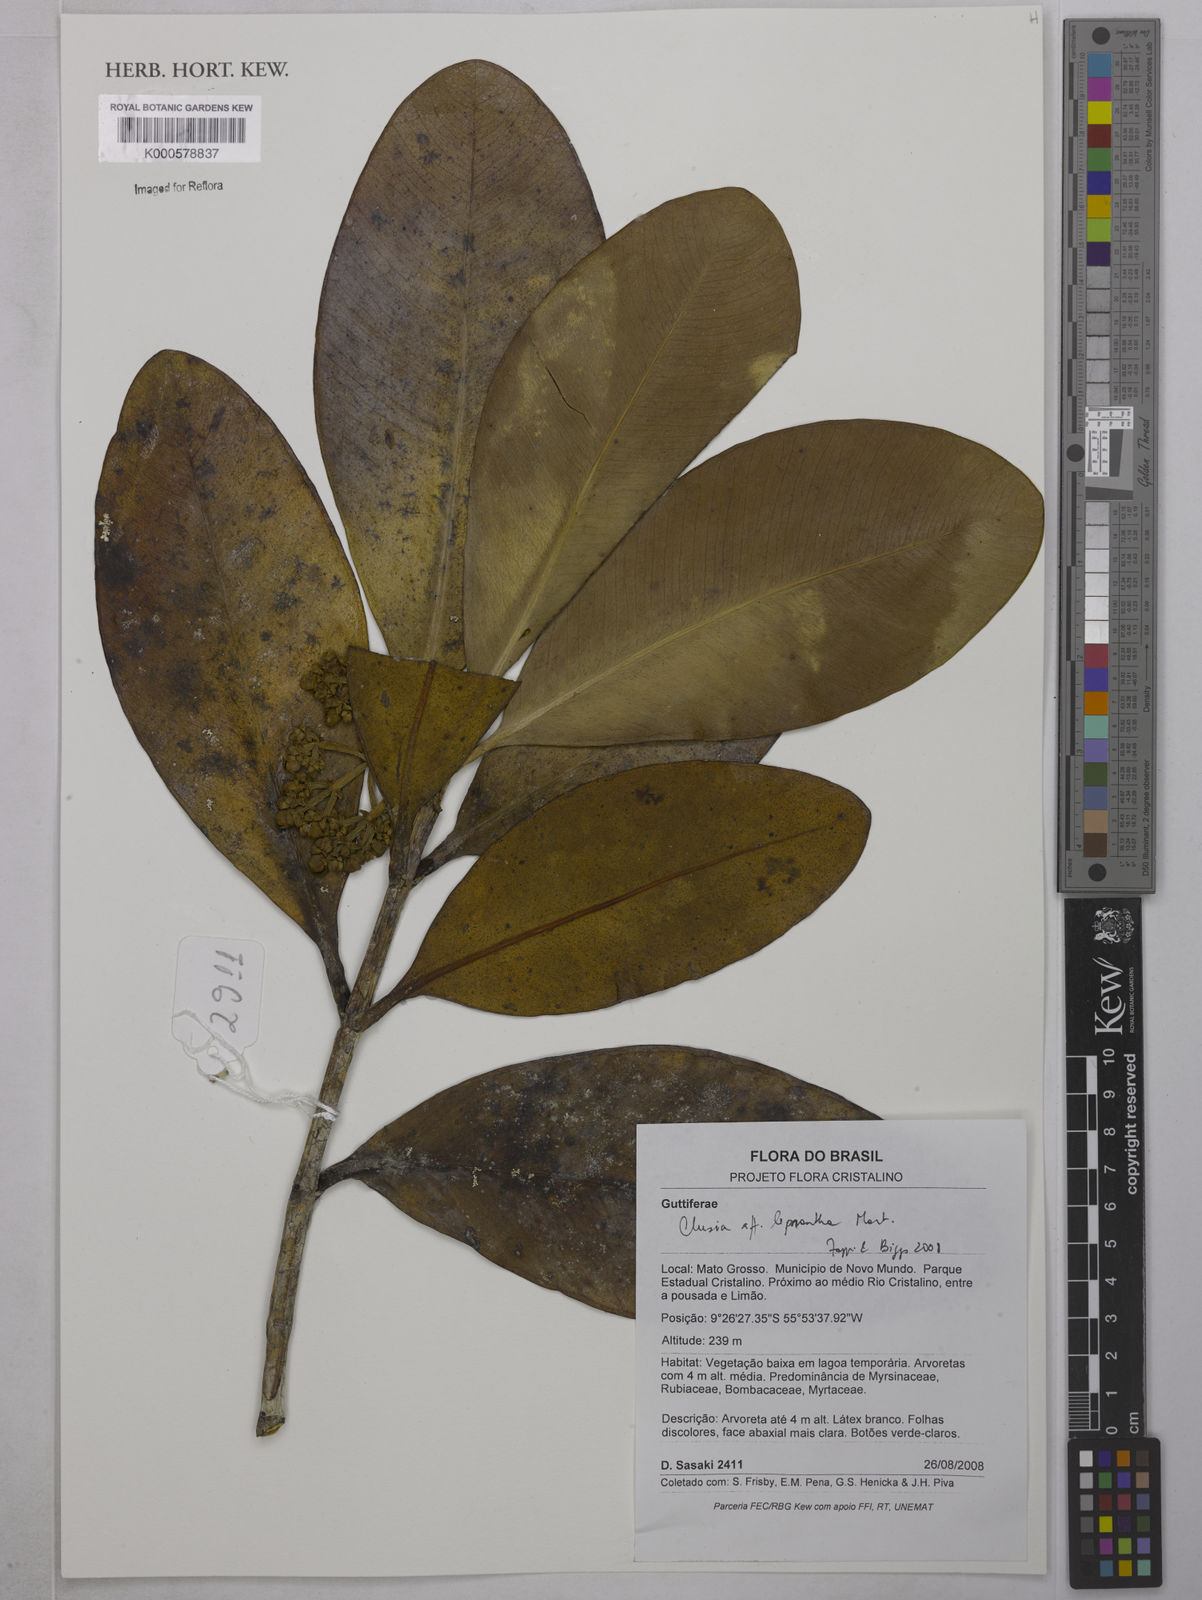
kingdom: Plantae
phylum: Tracheophyta
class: Magnoliopsida
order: Malpighiales
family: Clusiaceae
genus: Clusia
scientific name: Clusia leprantha
